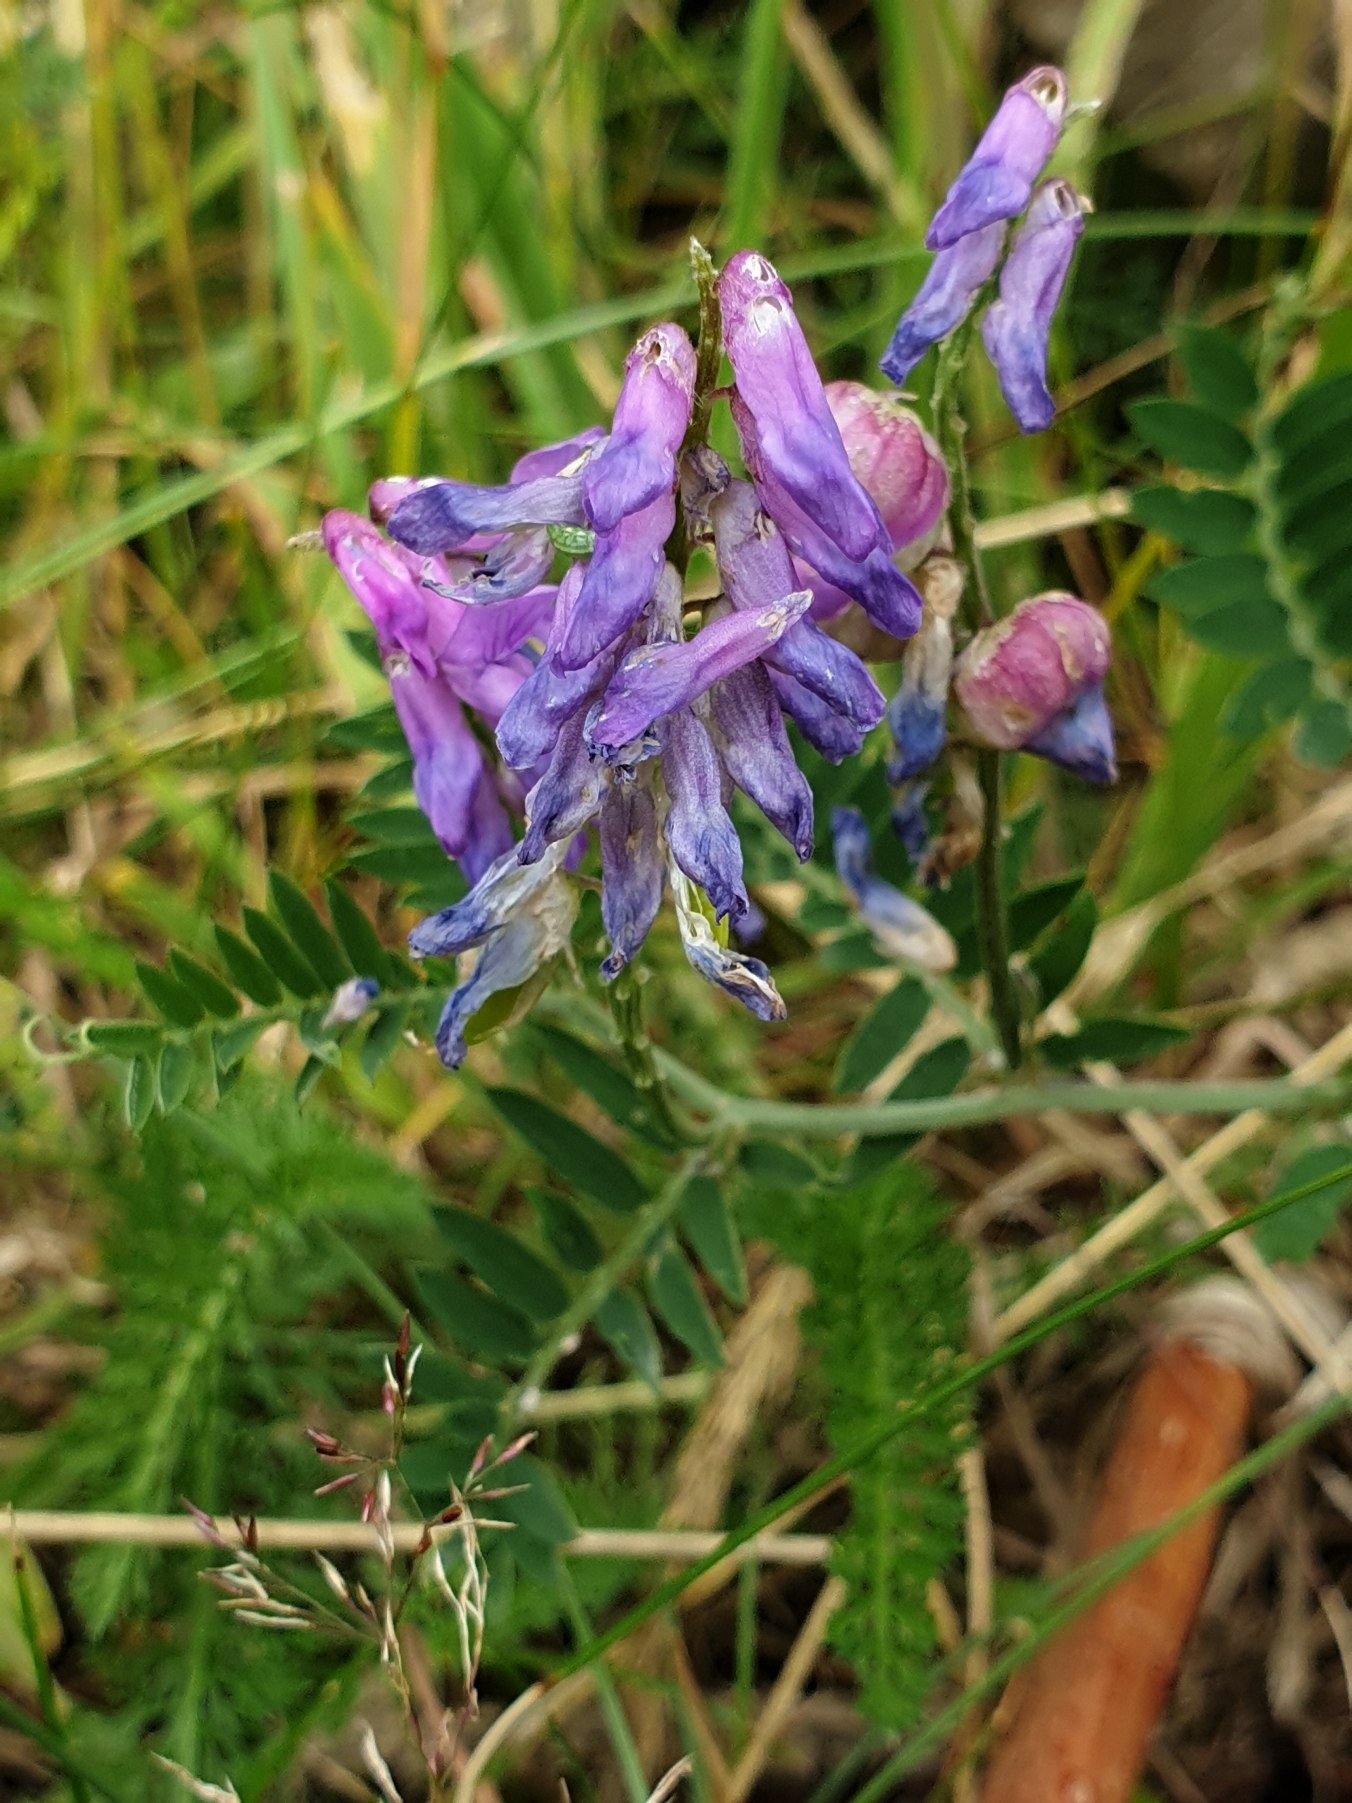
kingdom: Plantae
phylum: Tracheophyta
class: Magnoliopsida
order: Fabales
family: Fabaceae
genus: Vicia
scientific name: Vicia cracca
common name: Muse-vikke
